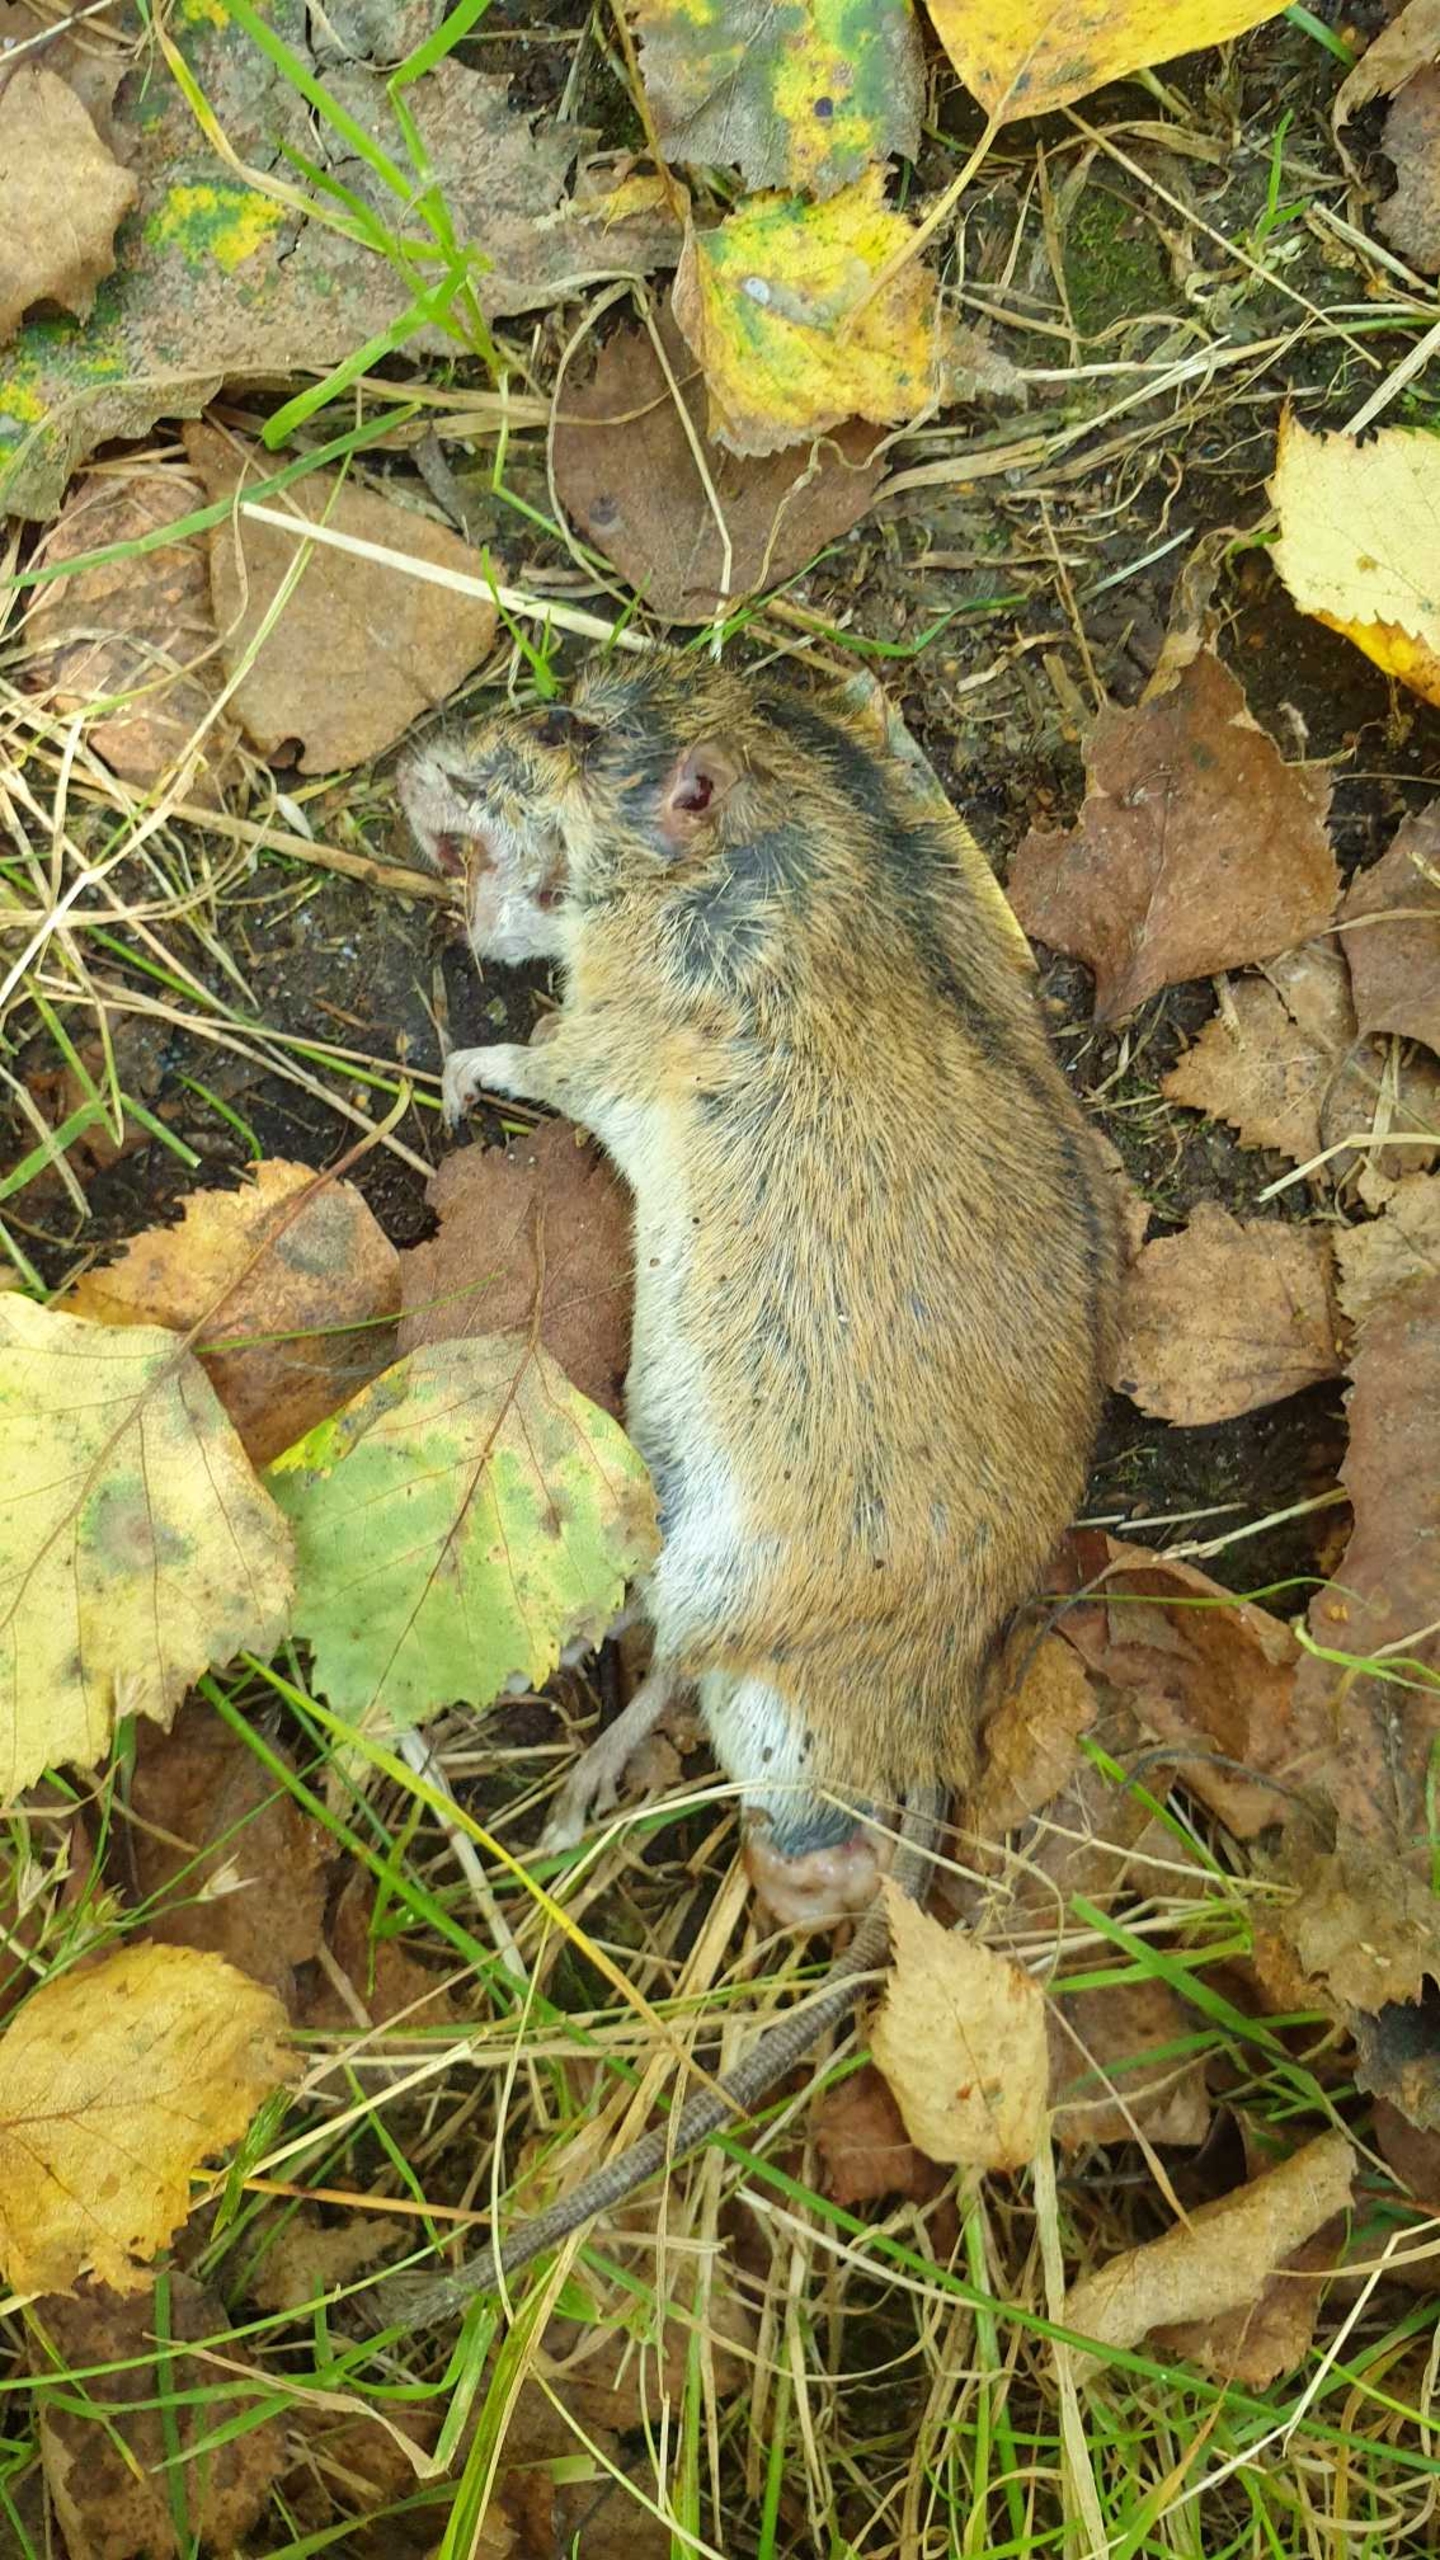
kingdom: Animalia
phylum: Chordata
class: Mammalia
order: Rodentia
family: Muridae
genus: Apodemus
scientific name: Apodemus agrarius
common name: Brandmus
